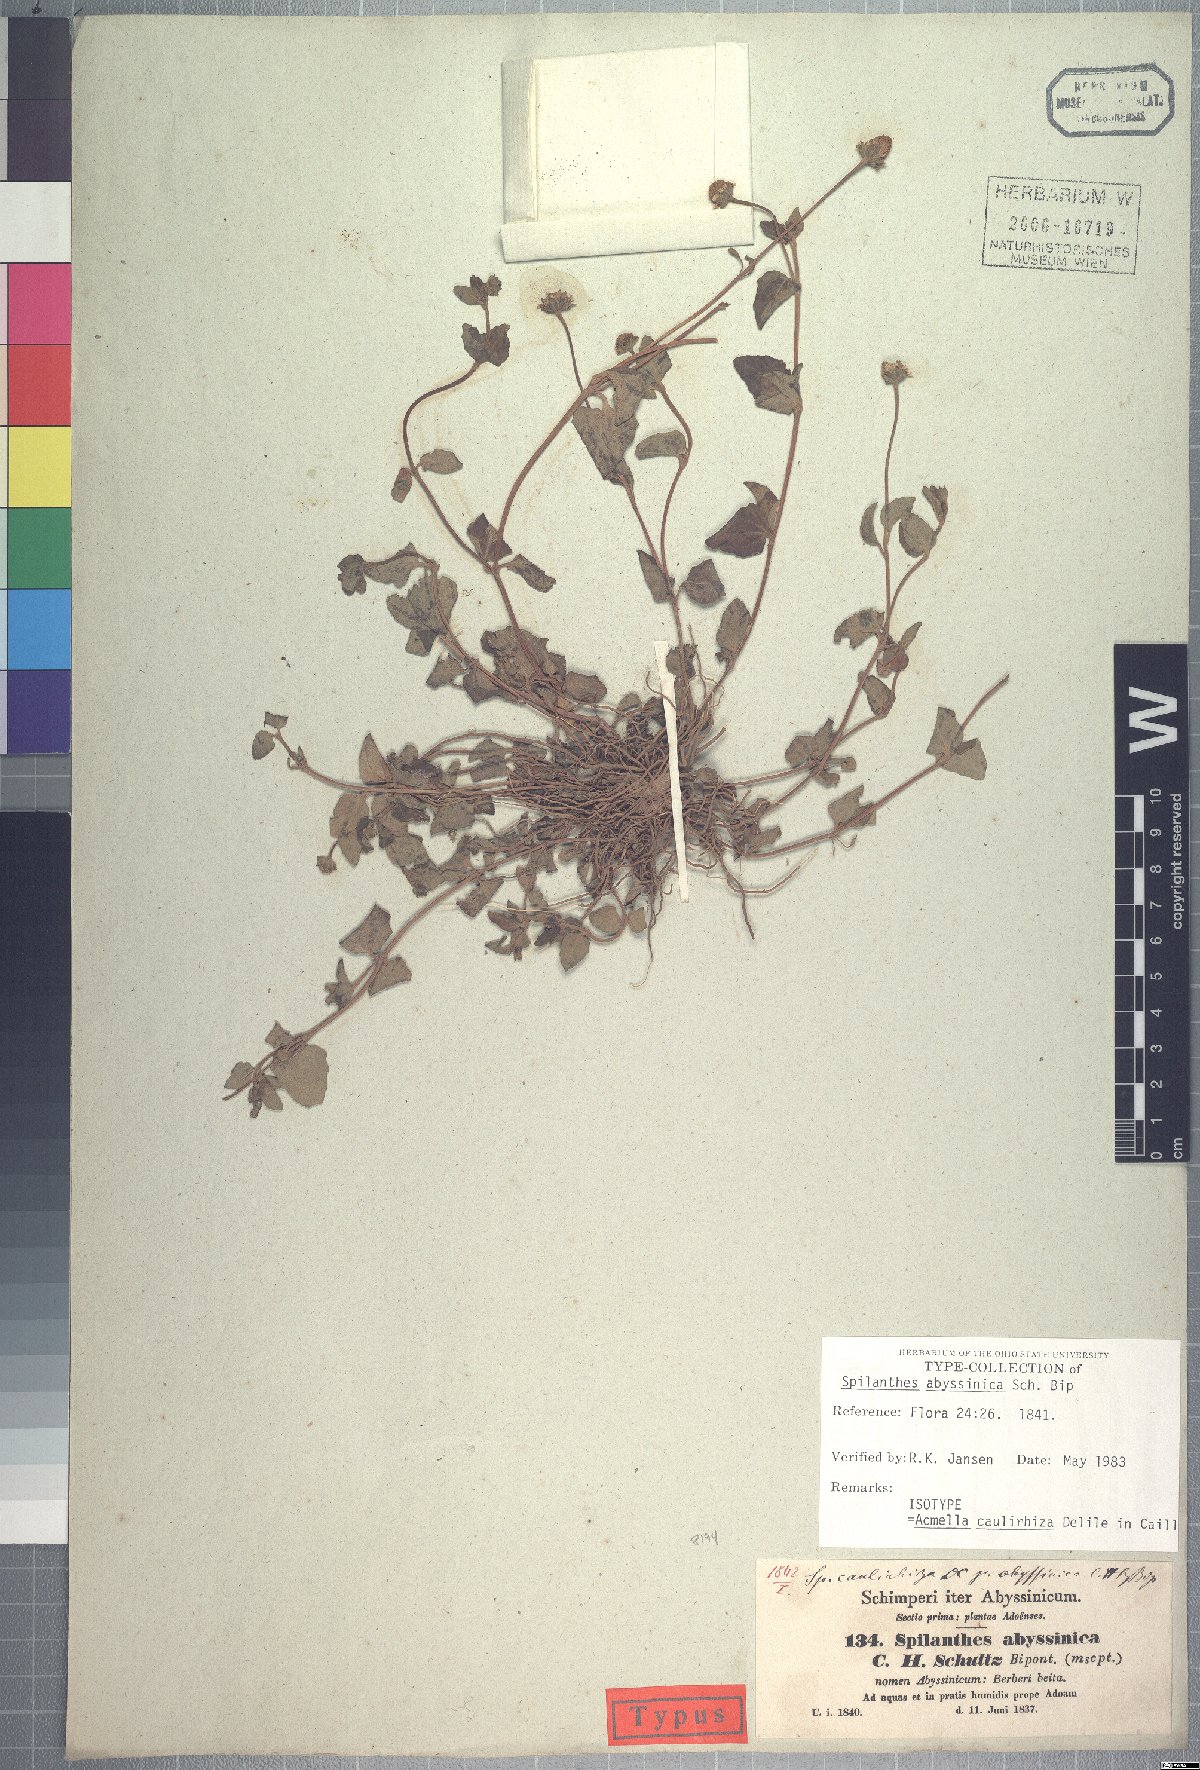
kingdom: Plantae
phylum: Tracheophyta
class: Magnoliopsida
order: Asterales
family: Asteraceae
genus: Acmella
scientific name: Acmella caulirhiza
